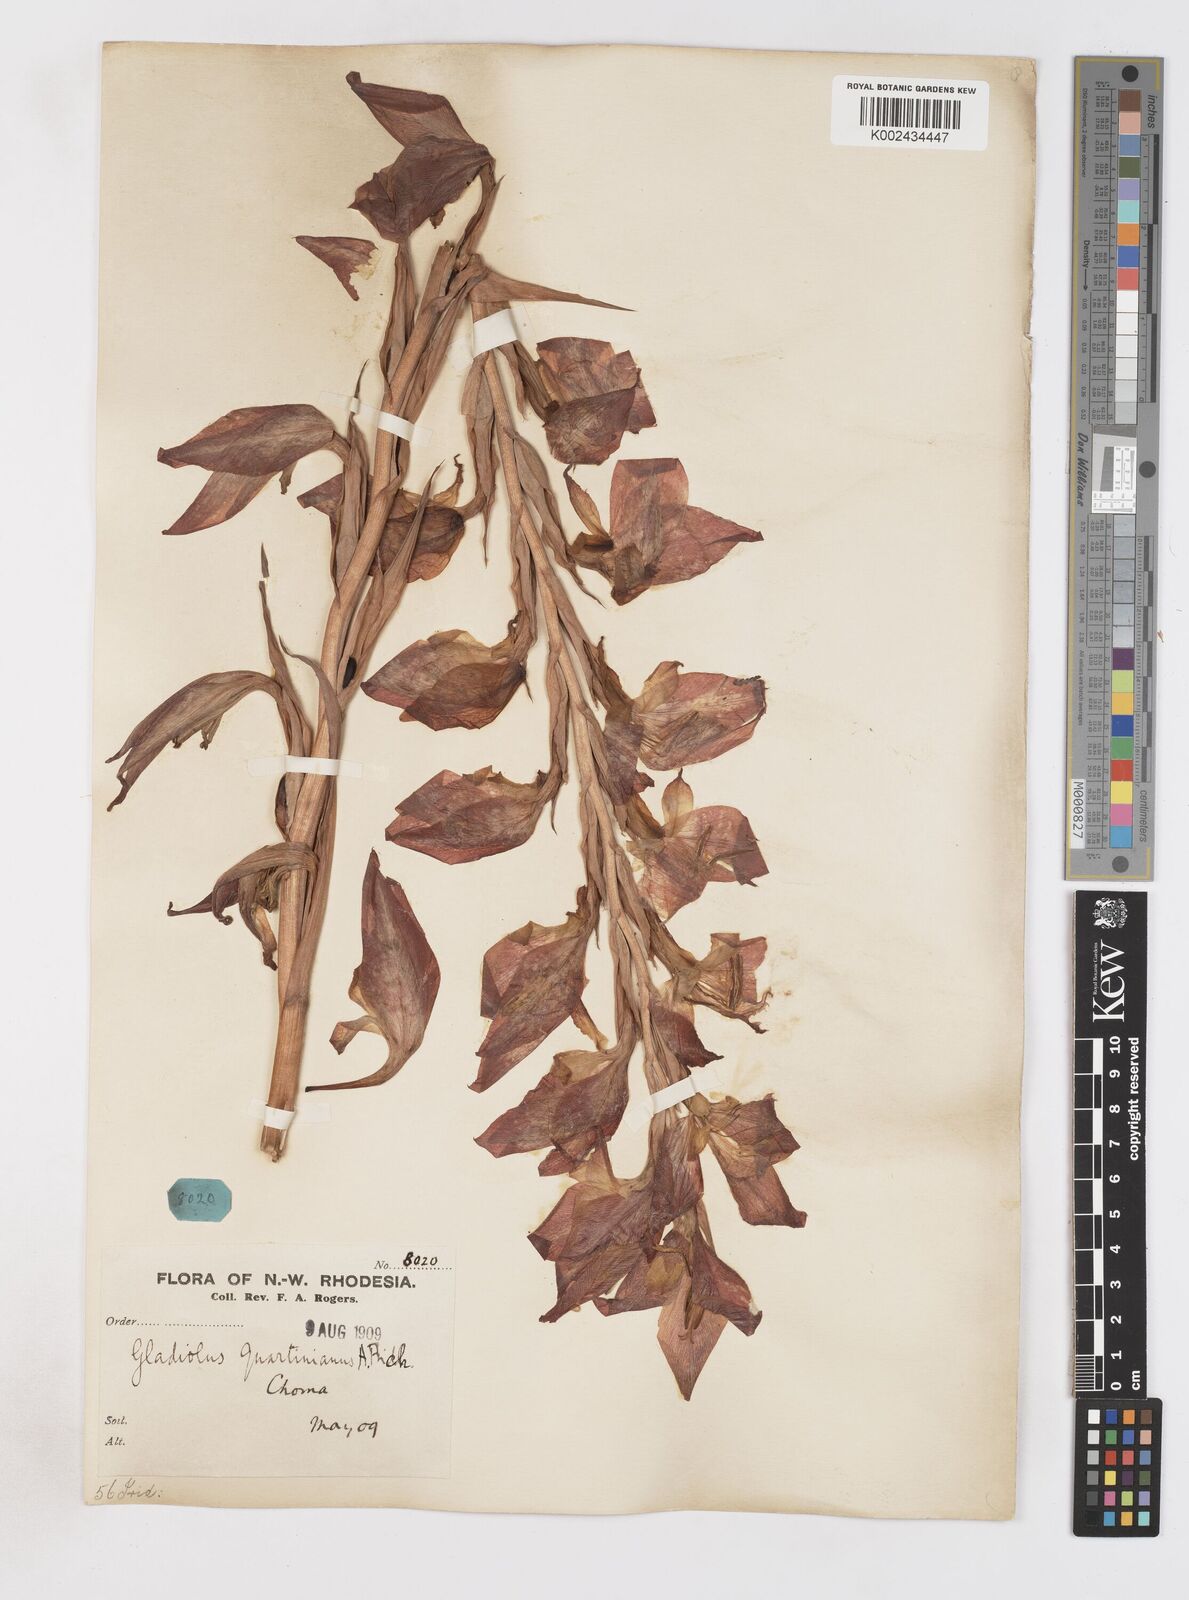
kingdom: Plantae
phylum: Tracheophyta
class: Liliopsida
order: Asparagales
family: Iridaceae
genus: Gladiolus
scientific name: Gladiolus dalenii
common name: Cornflag
